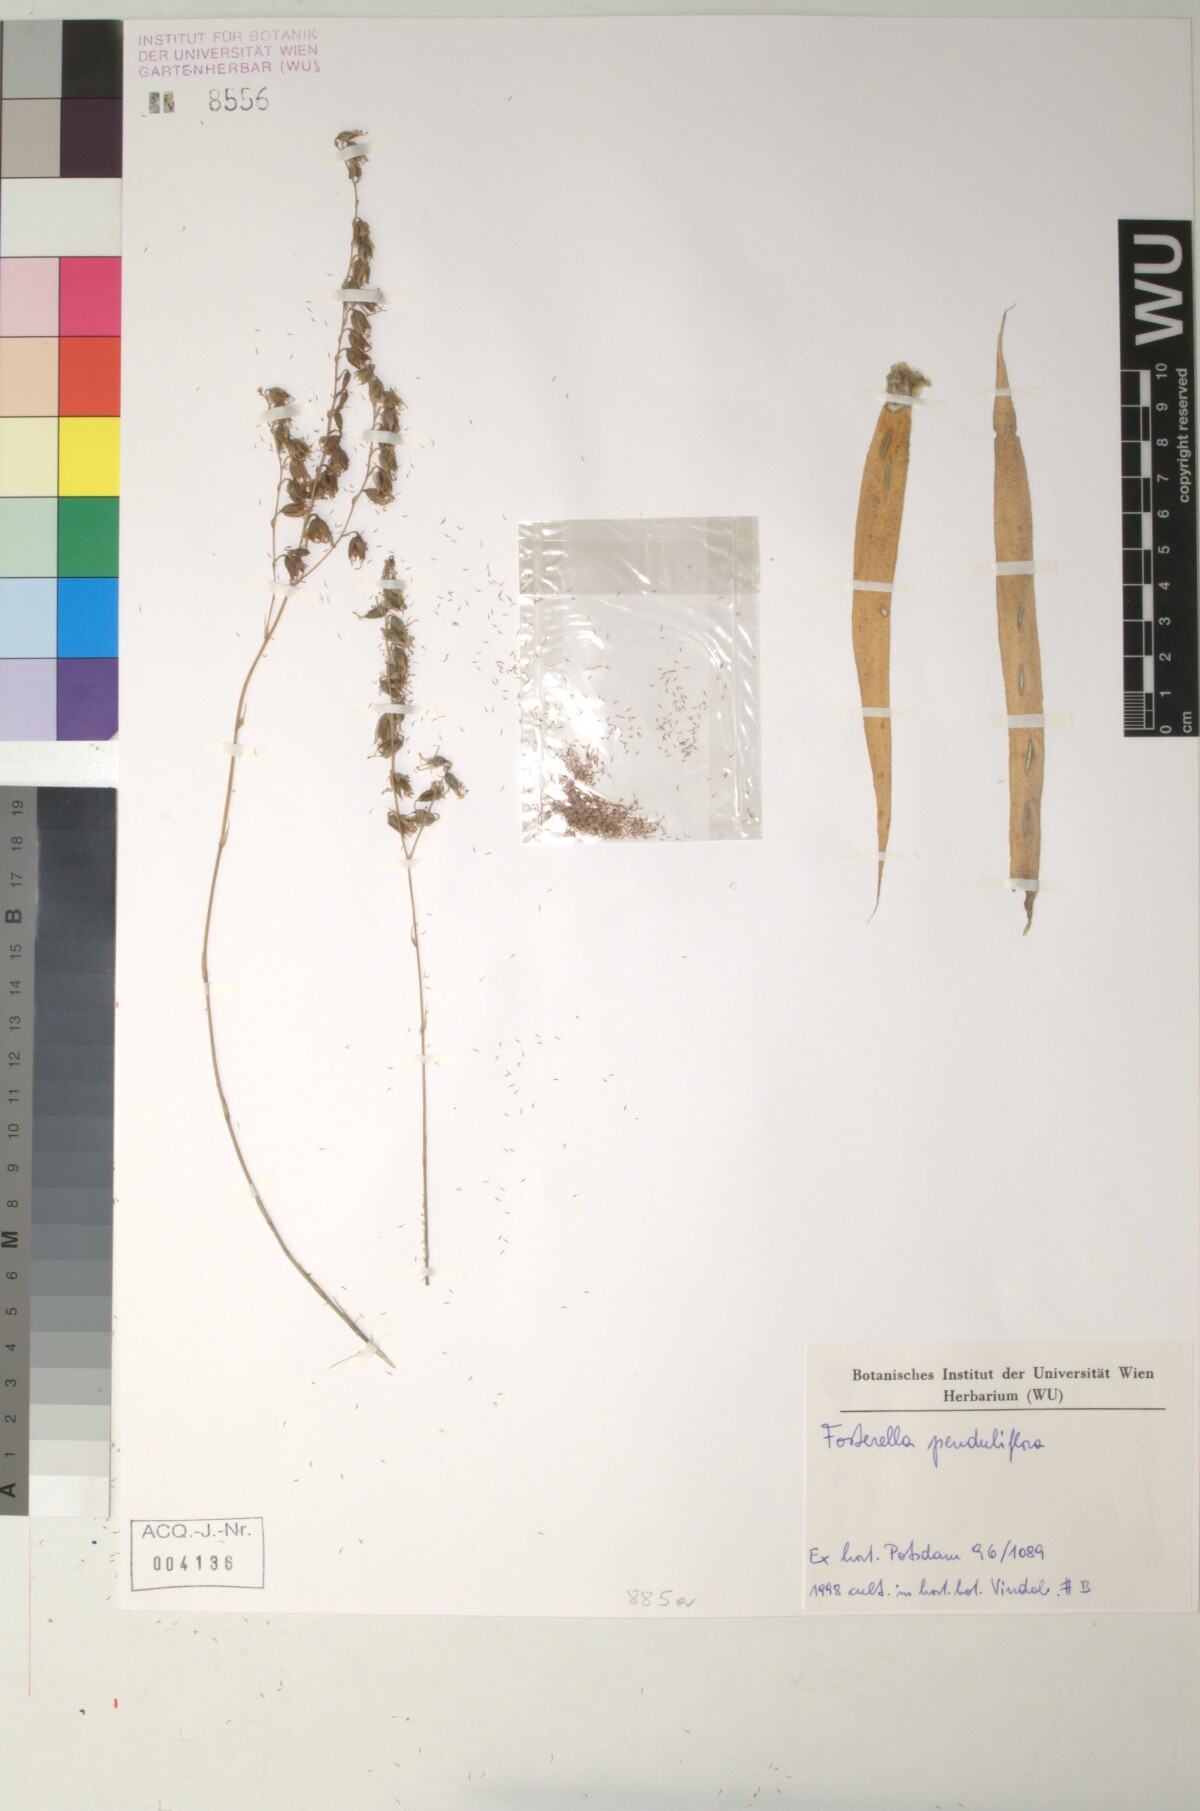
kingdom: Plantae
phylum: Tracheophyta
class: Liliopsida
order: Poales
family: Bromeliaceae
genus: Fosterella
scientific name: Fosterella penduliflora
